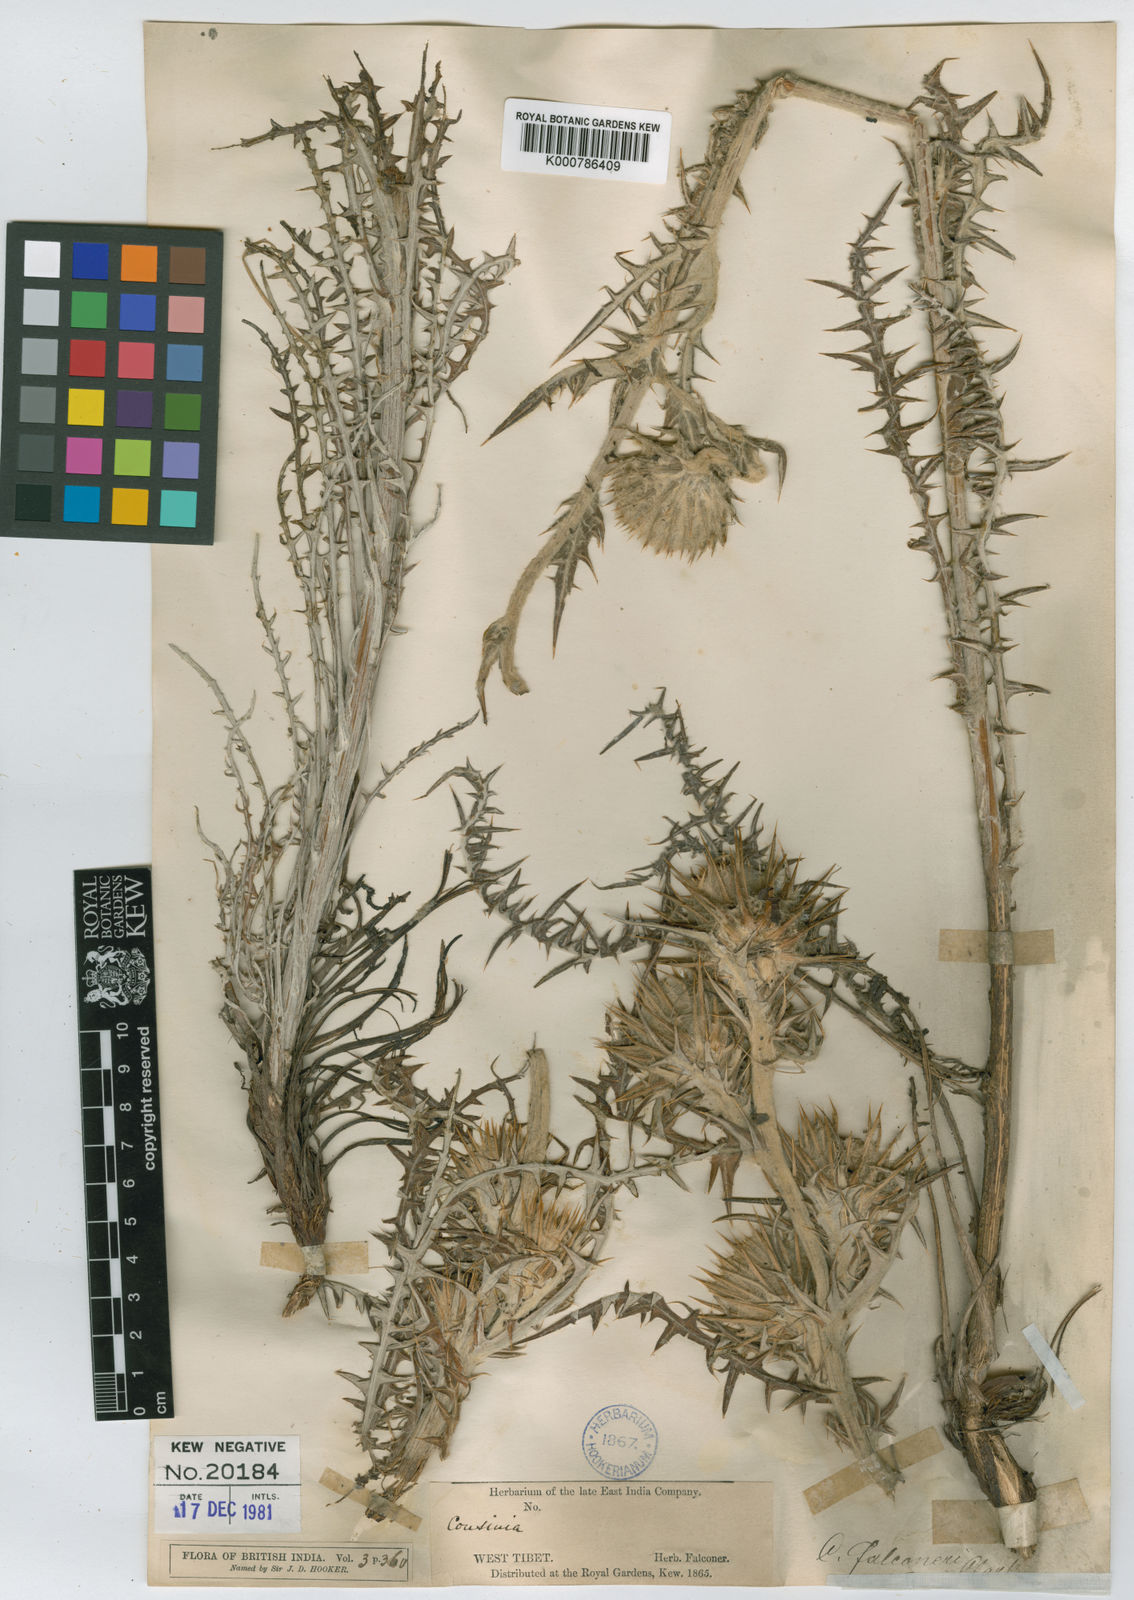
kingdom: Plantae
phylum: Tracheophyta
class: Magnoliopsida
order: Asterales
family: Asteraceae
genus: Cousinia
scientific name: Cousinia falconeri
